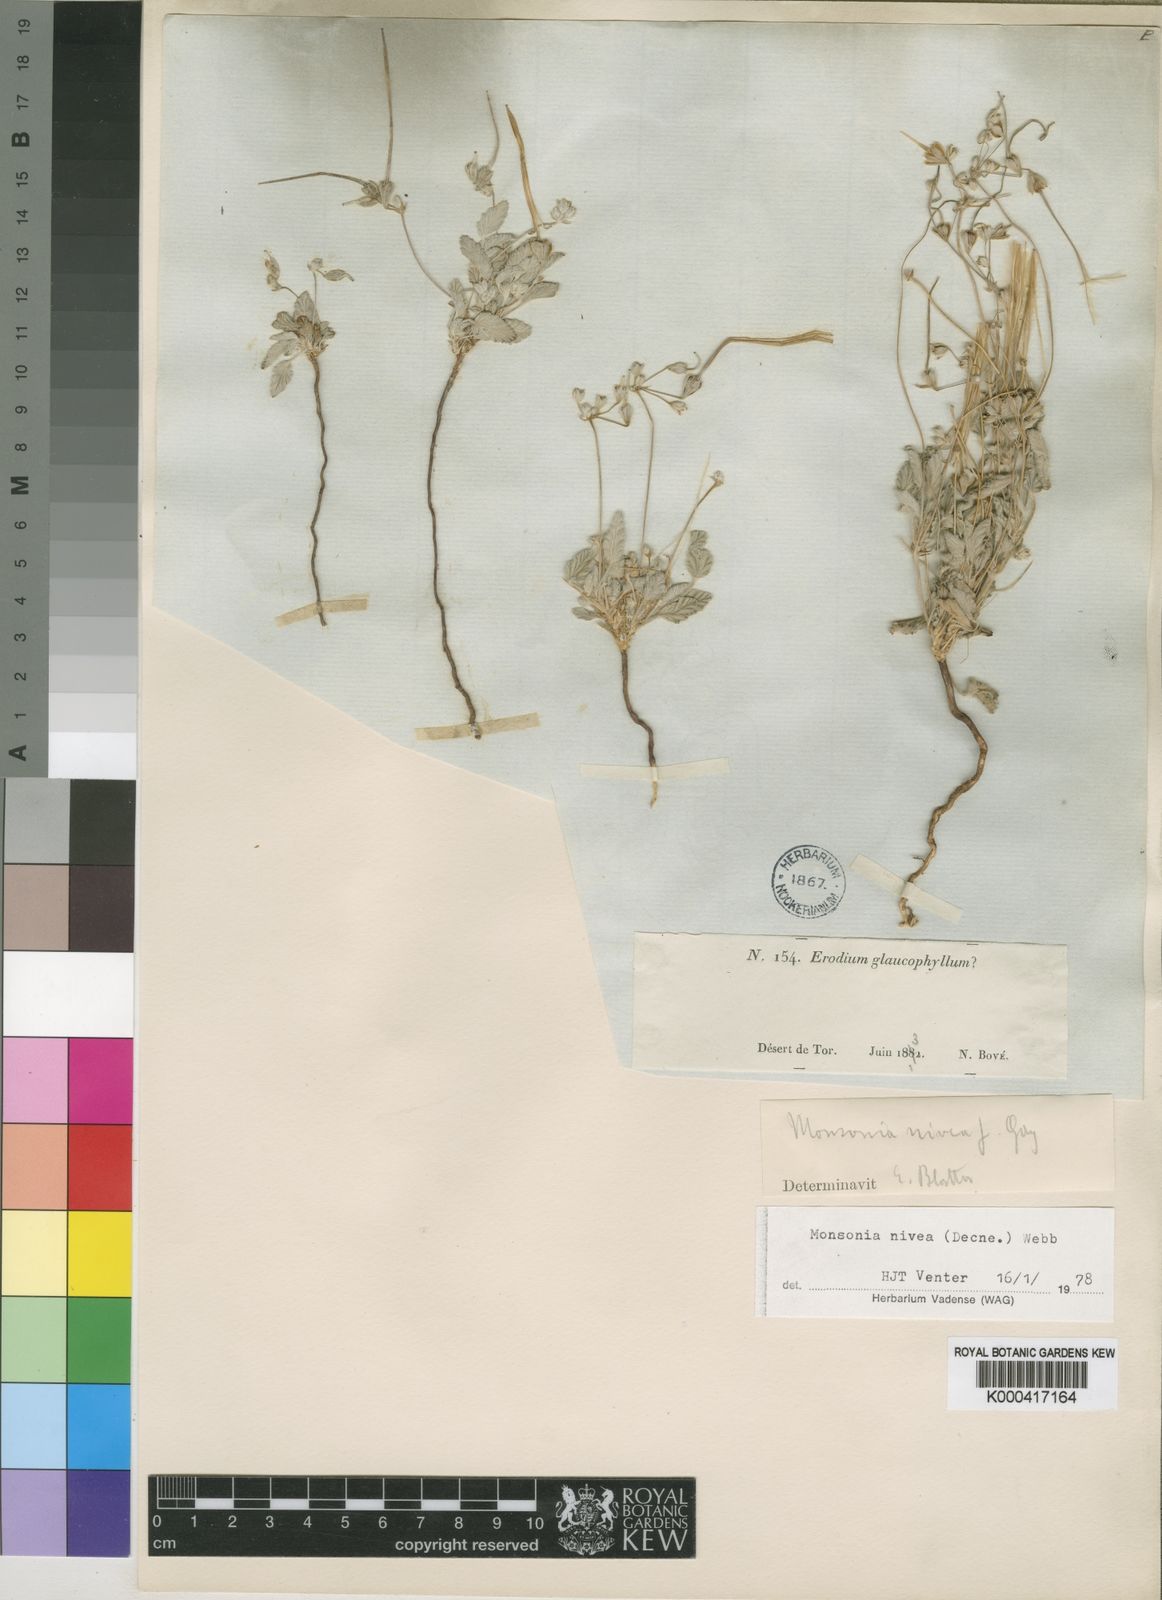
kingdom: Plantae
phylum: Tracheophyta
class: Magnoliopsida
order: Geraniales
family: Geraniaceae
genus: Monsonia
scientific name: Monsonia nivea
